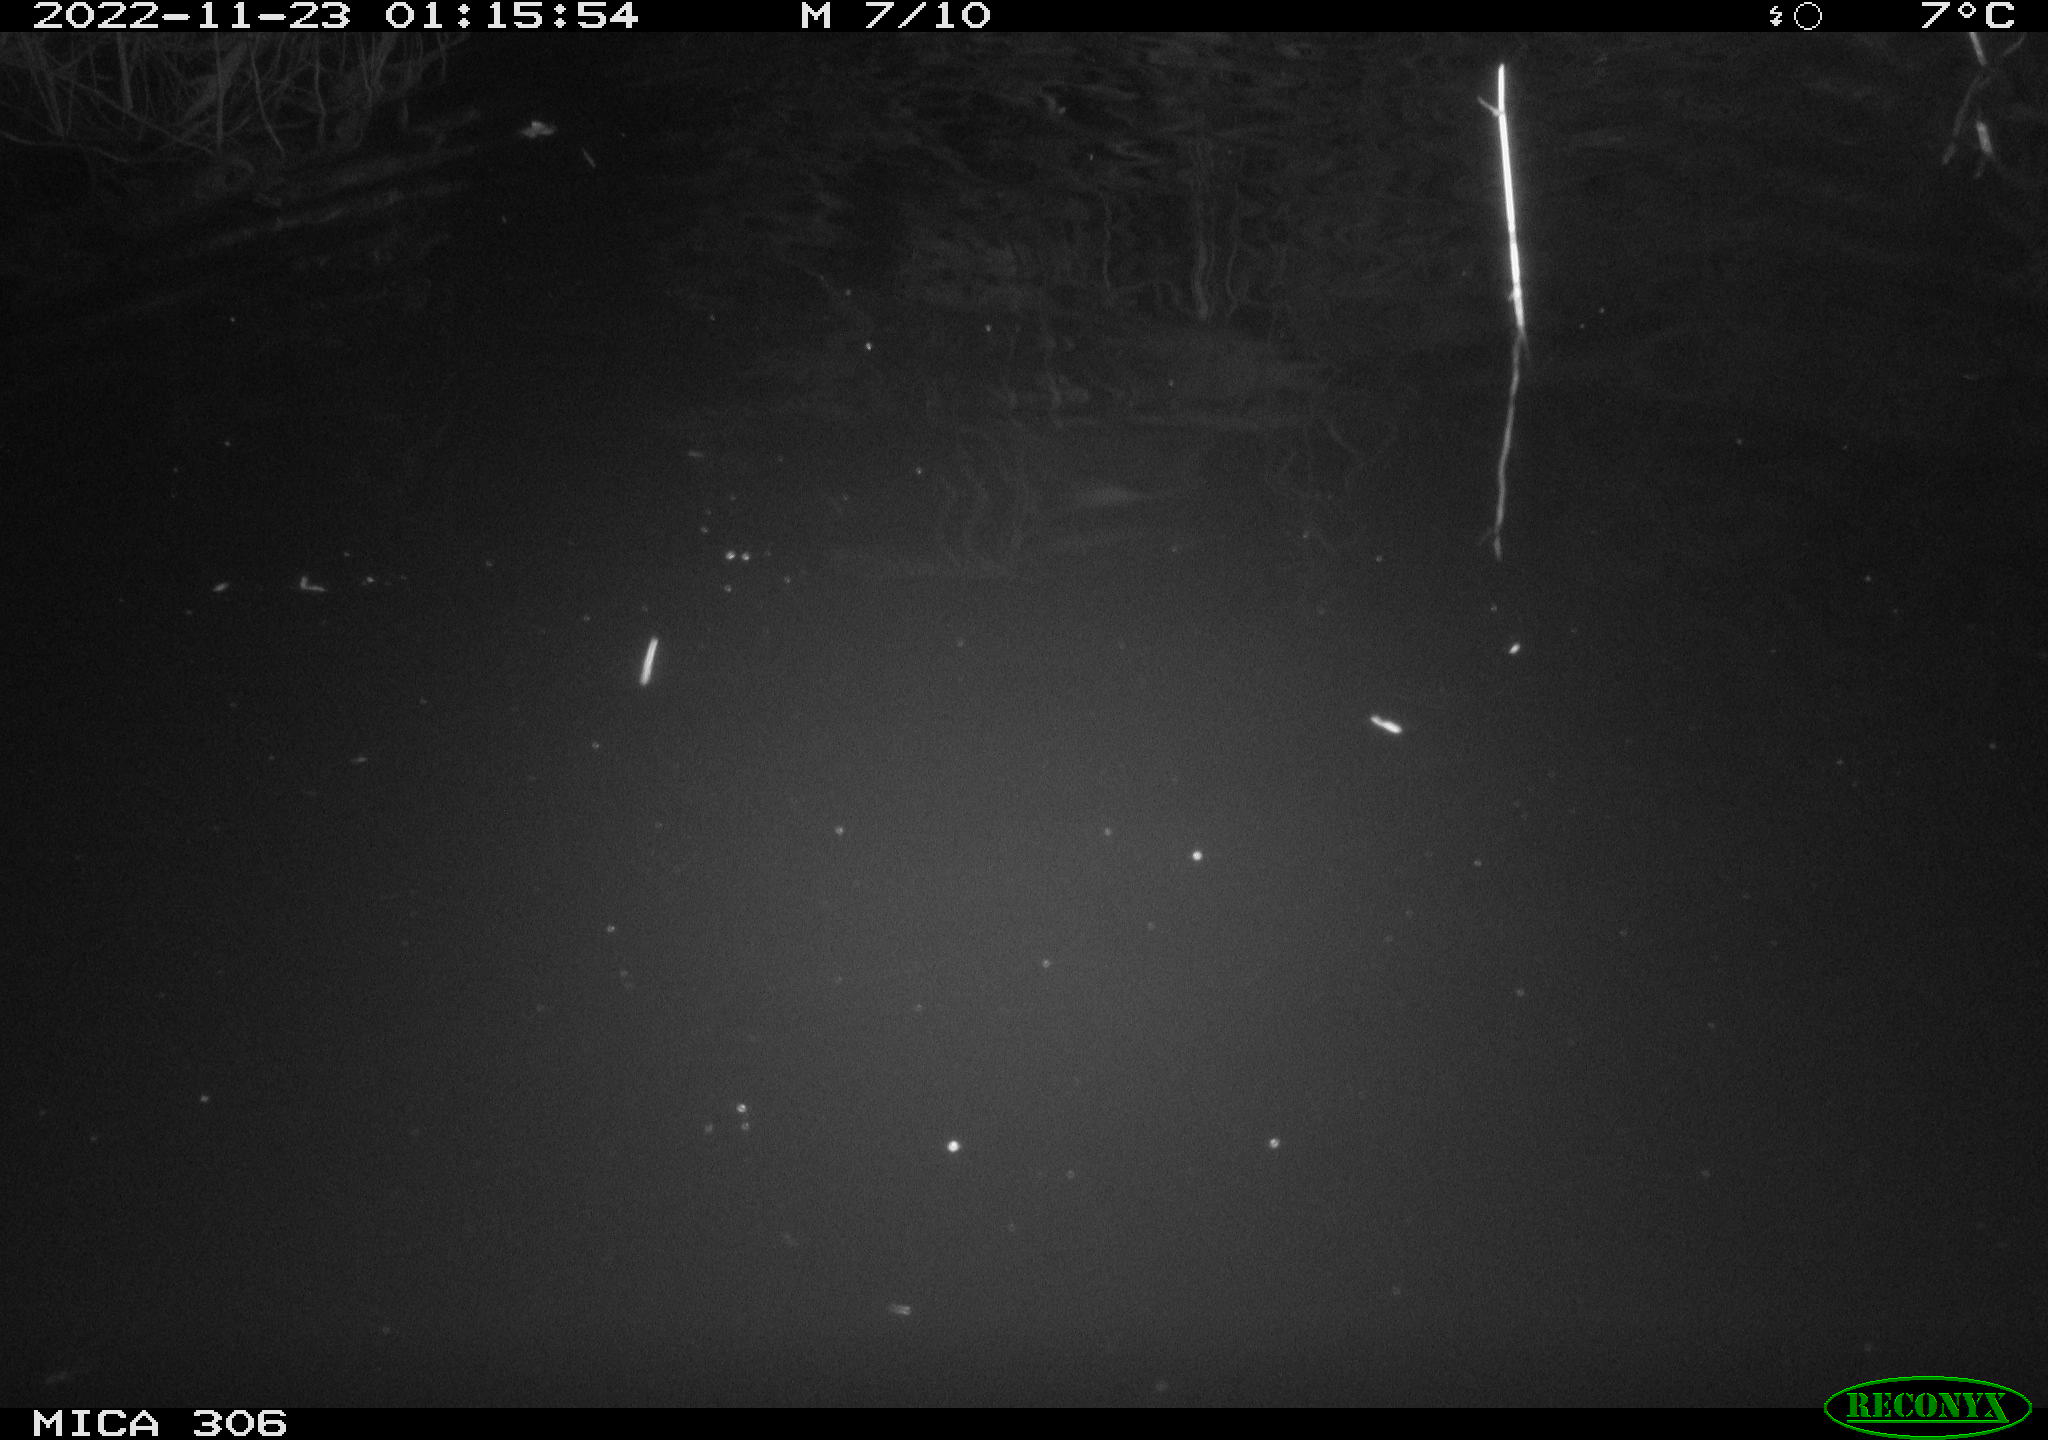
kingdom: Animalia
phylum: Chordata
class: Mammalia
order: Rodentia
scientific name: Rodentia
